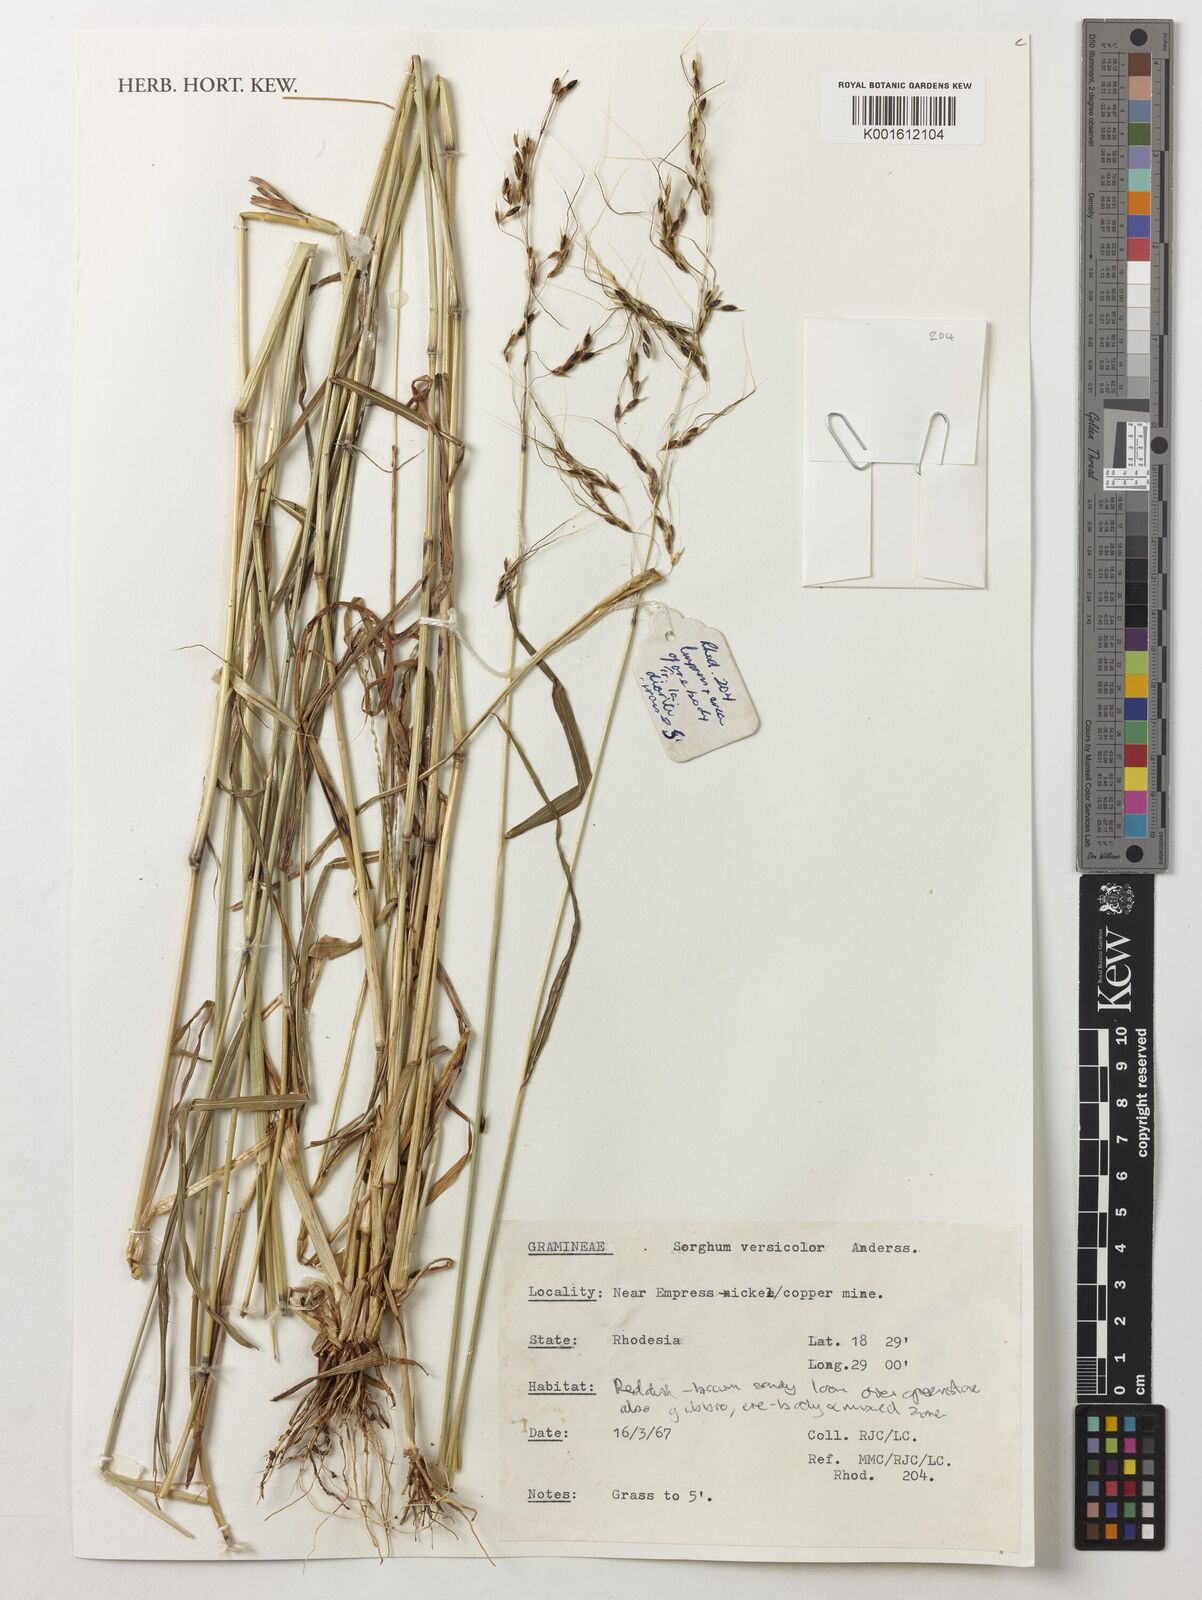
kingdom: Plantae
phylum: Tracheophyta
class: Liliopsida
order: Poales
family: Poaceae
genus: Sarga
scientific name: Sarga versicolor
